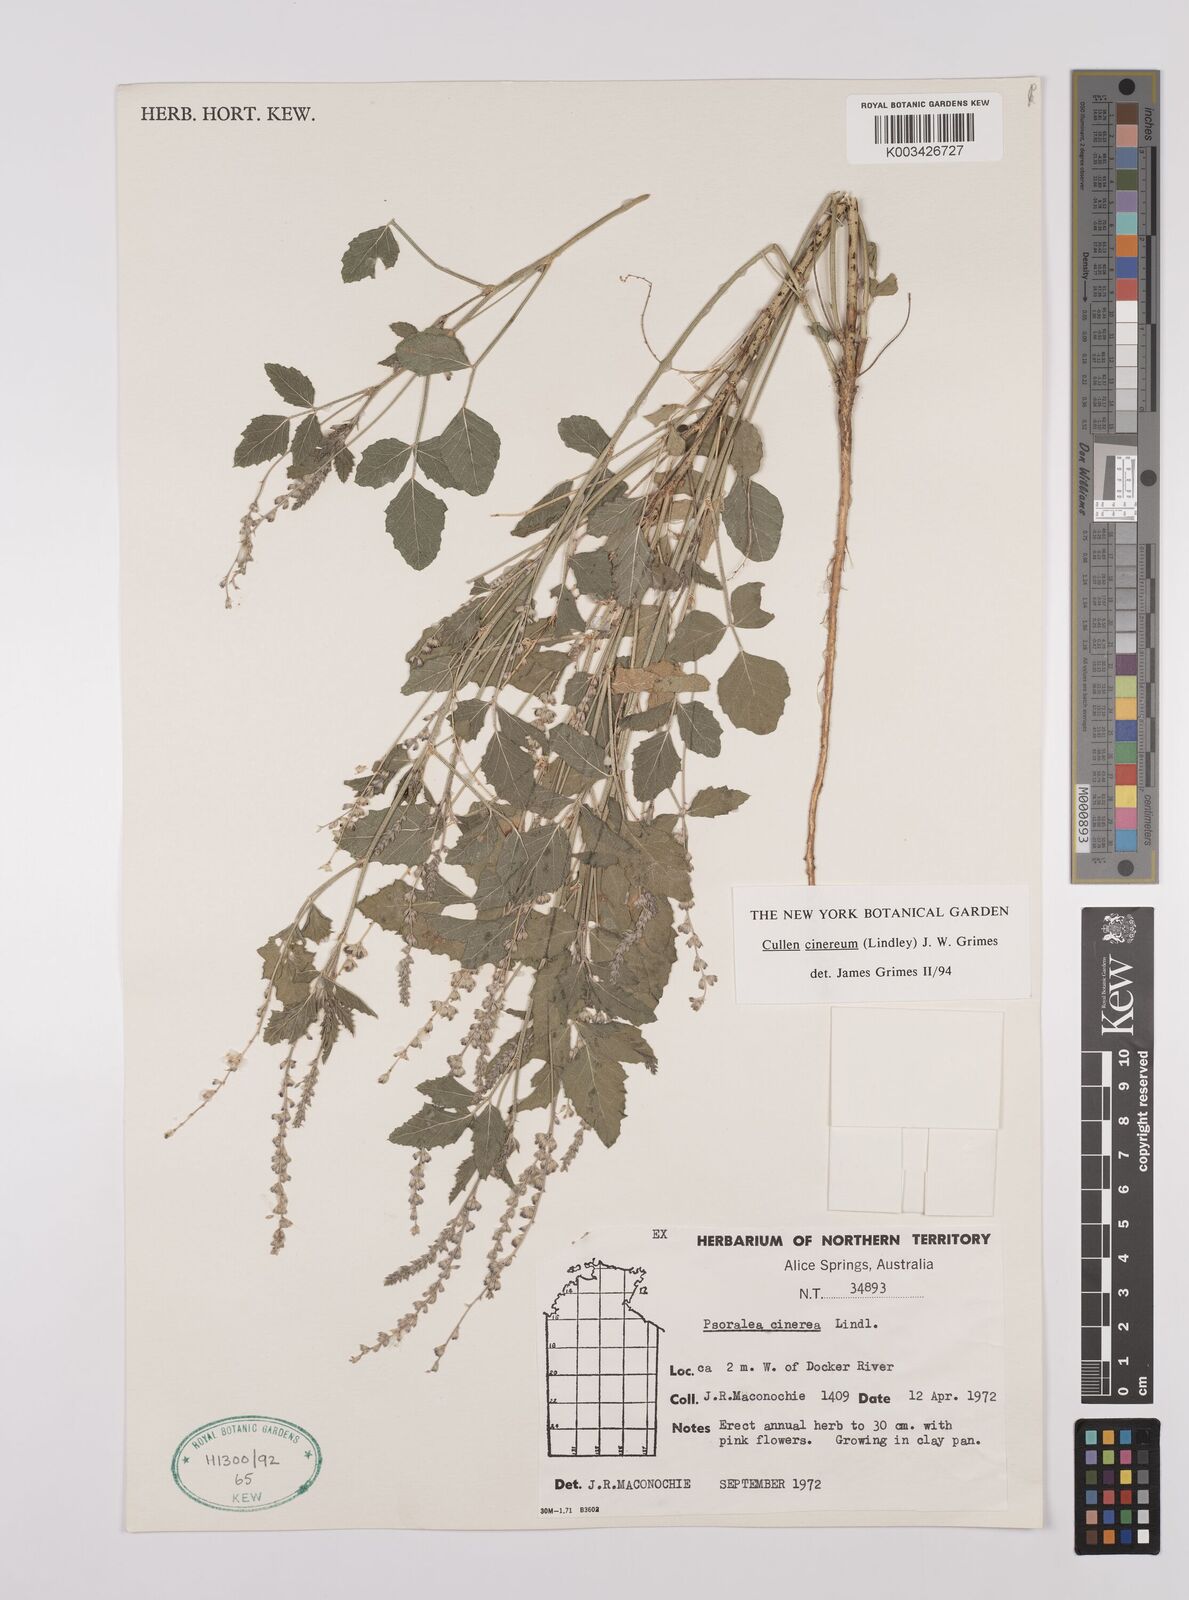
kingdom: Plantae
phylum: Tracheophyta
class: Magnoliopsida
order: Fabales
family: Fabaceae
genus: Cullen
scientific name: Cullen cinereum
